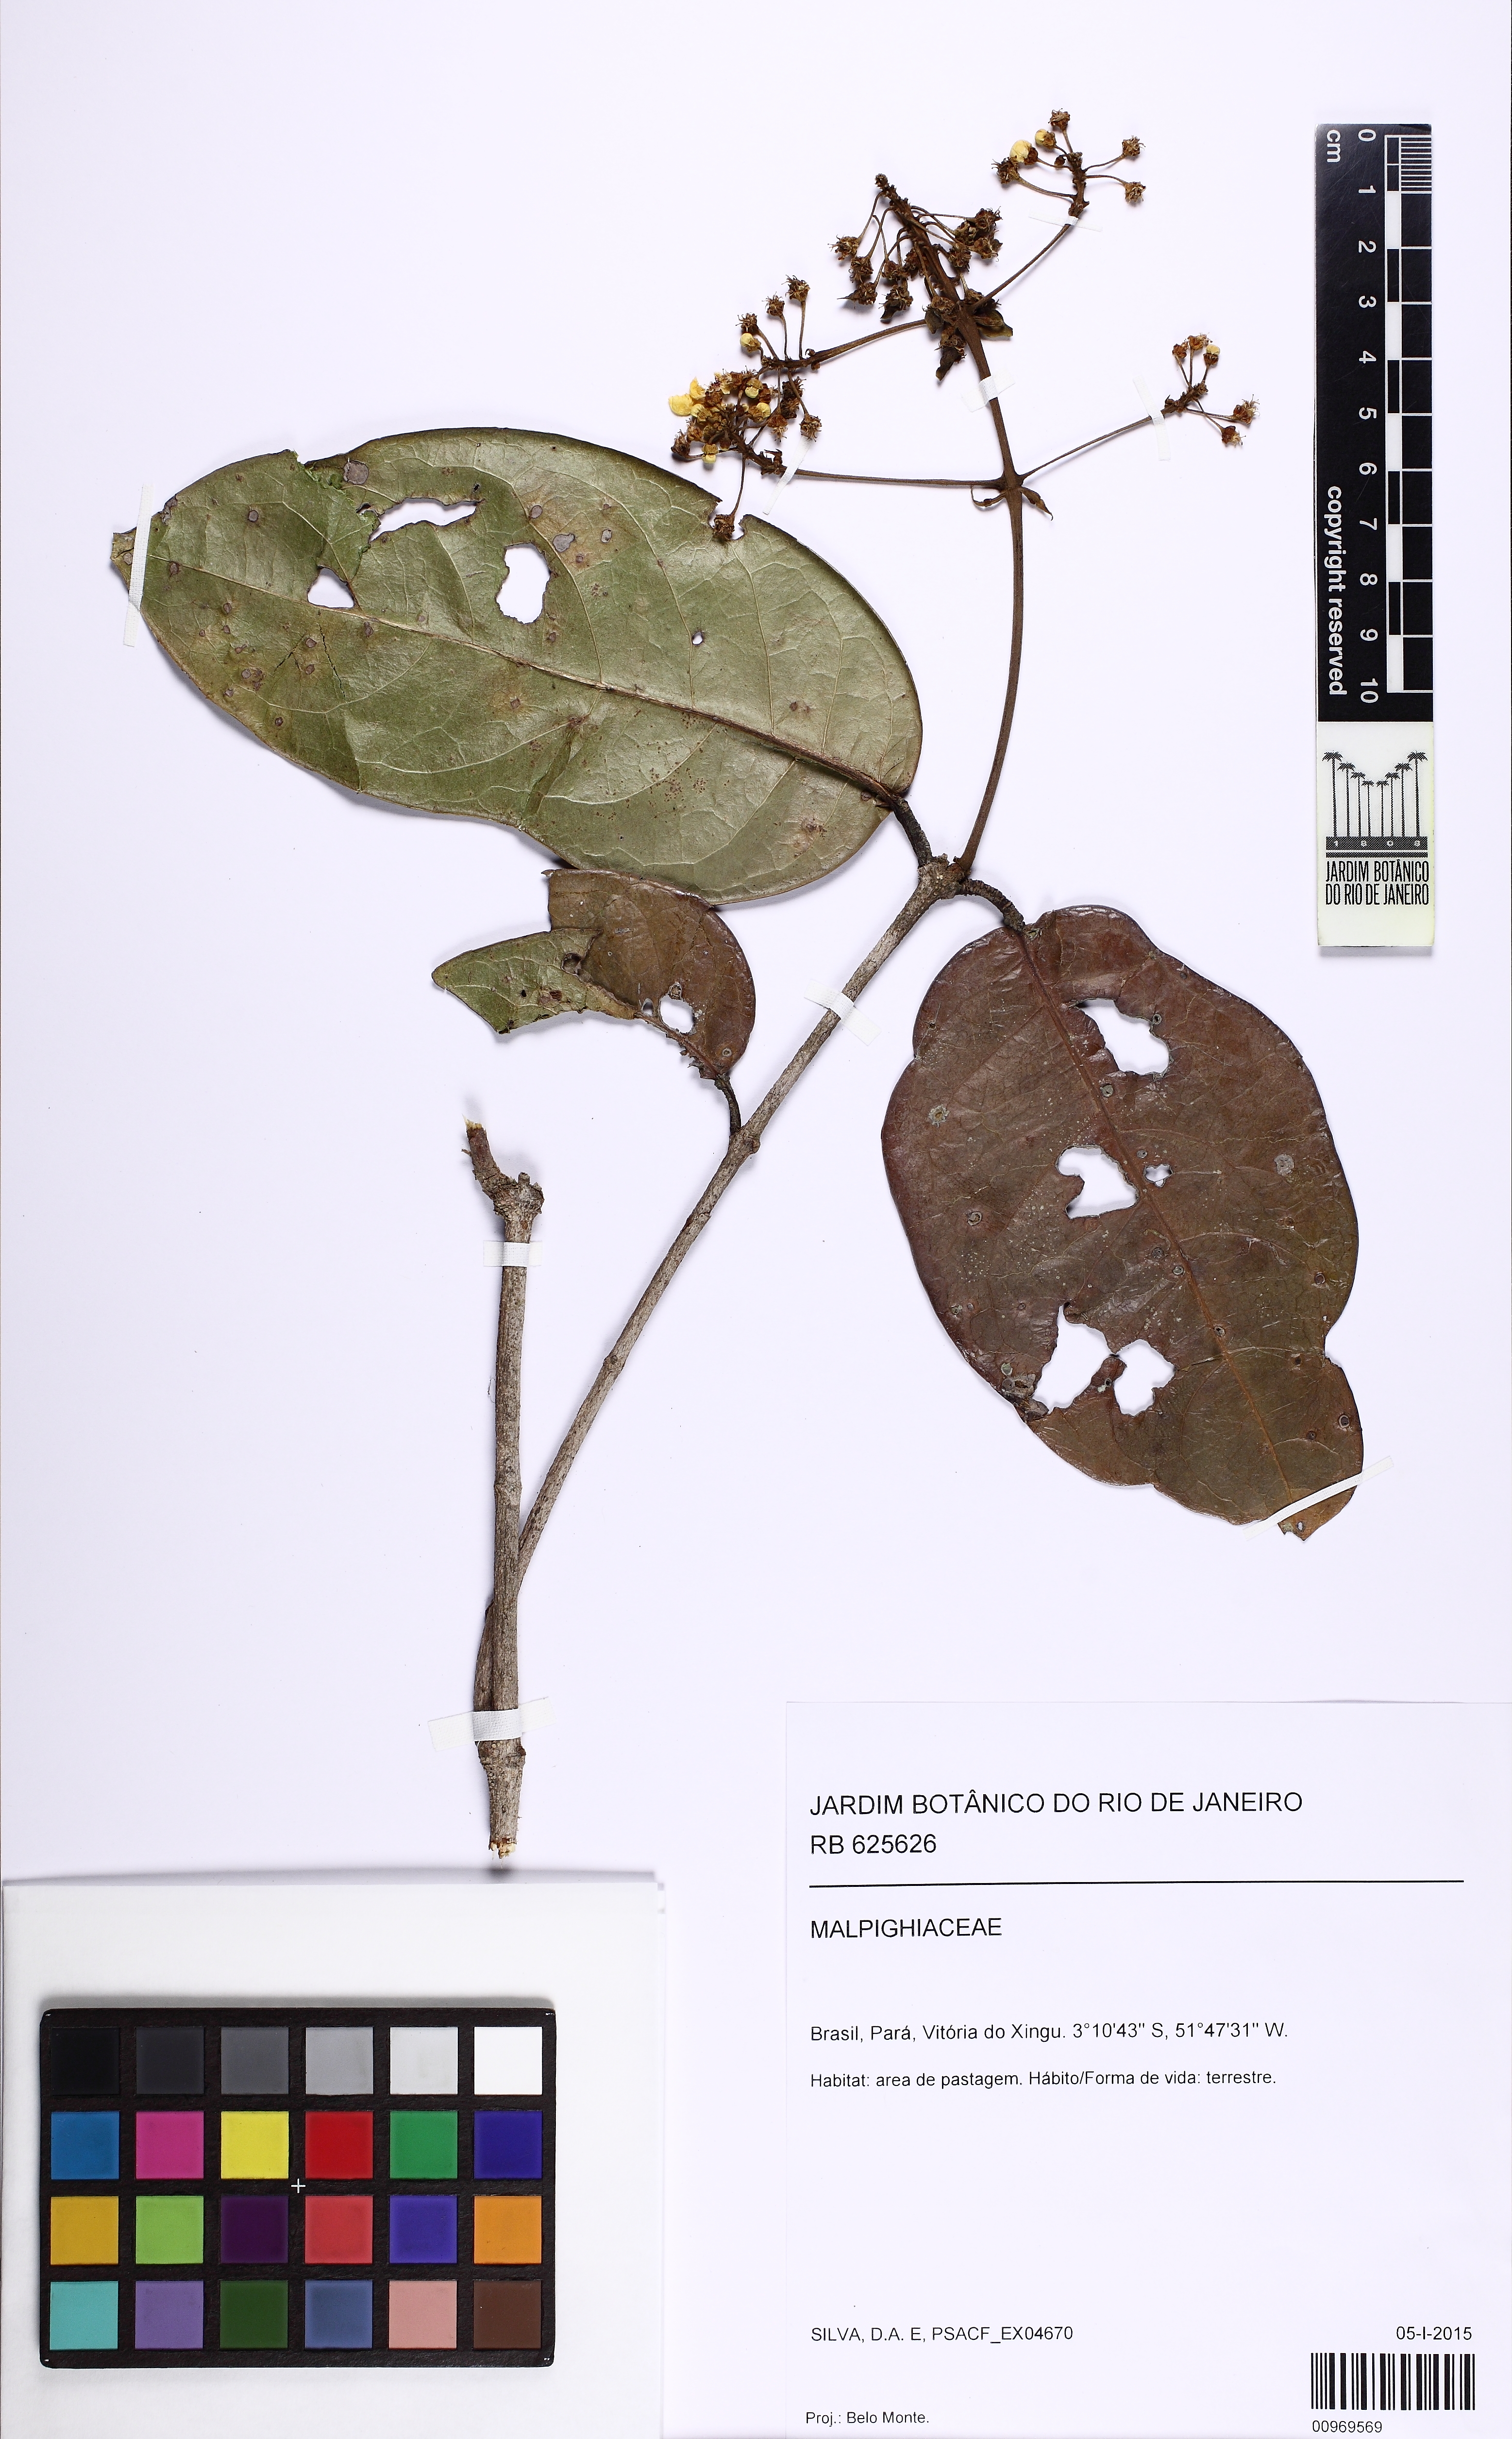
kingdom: Plantae
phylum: Tracheophyta
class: Magnoliopsida
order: Malpighiales
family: Malpighiaceae
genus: Bronwenia
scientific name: Bronwenia
